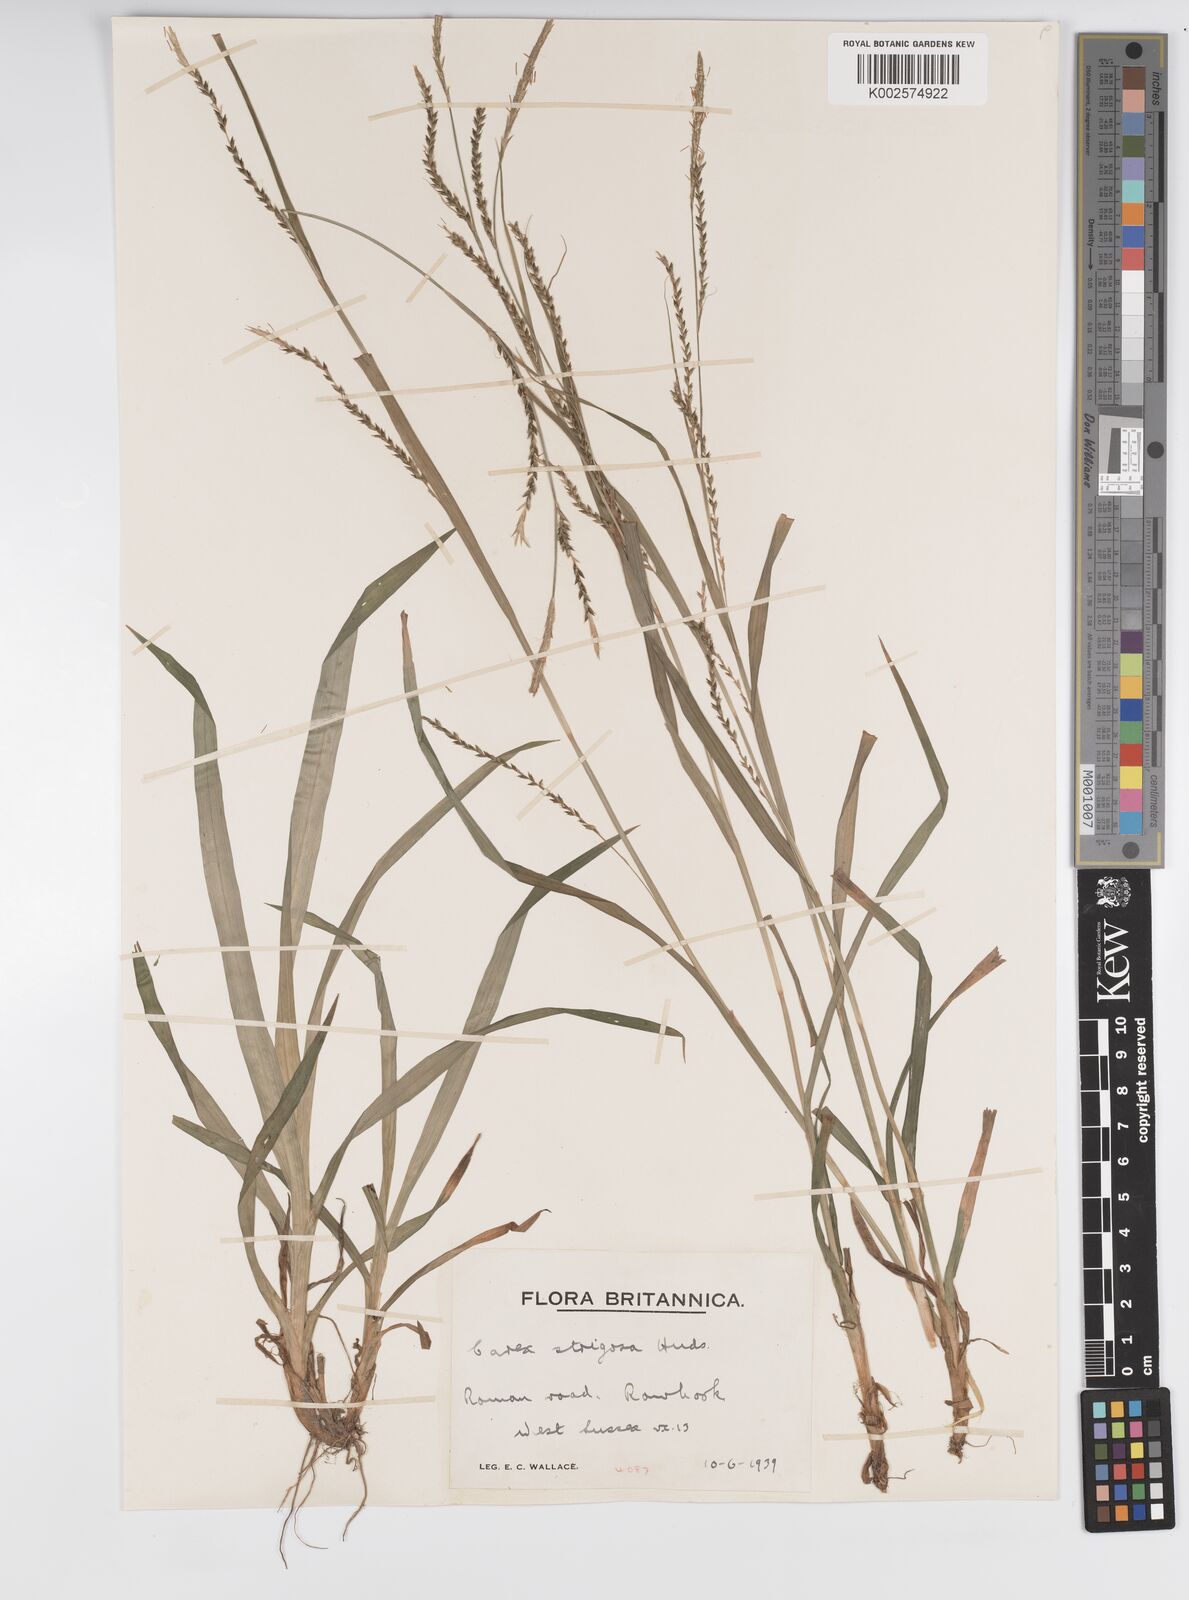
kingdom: Plantae
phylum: Tracheophyta
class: Liliopsida
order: Poales
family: Cyperaceae
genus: Carex
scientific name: Carex strigosa
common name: Thin-spiked wood-sedge
